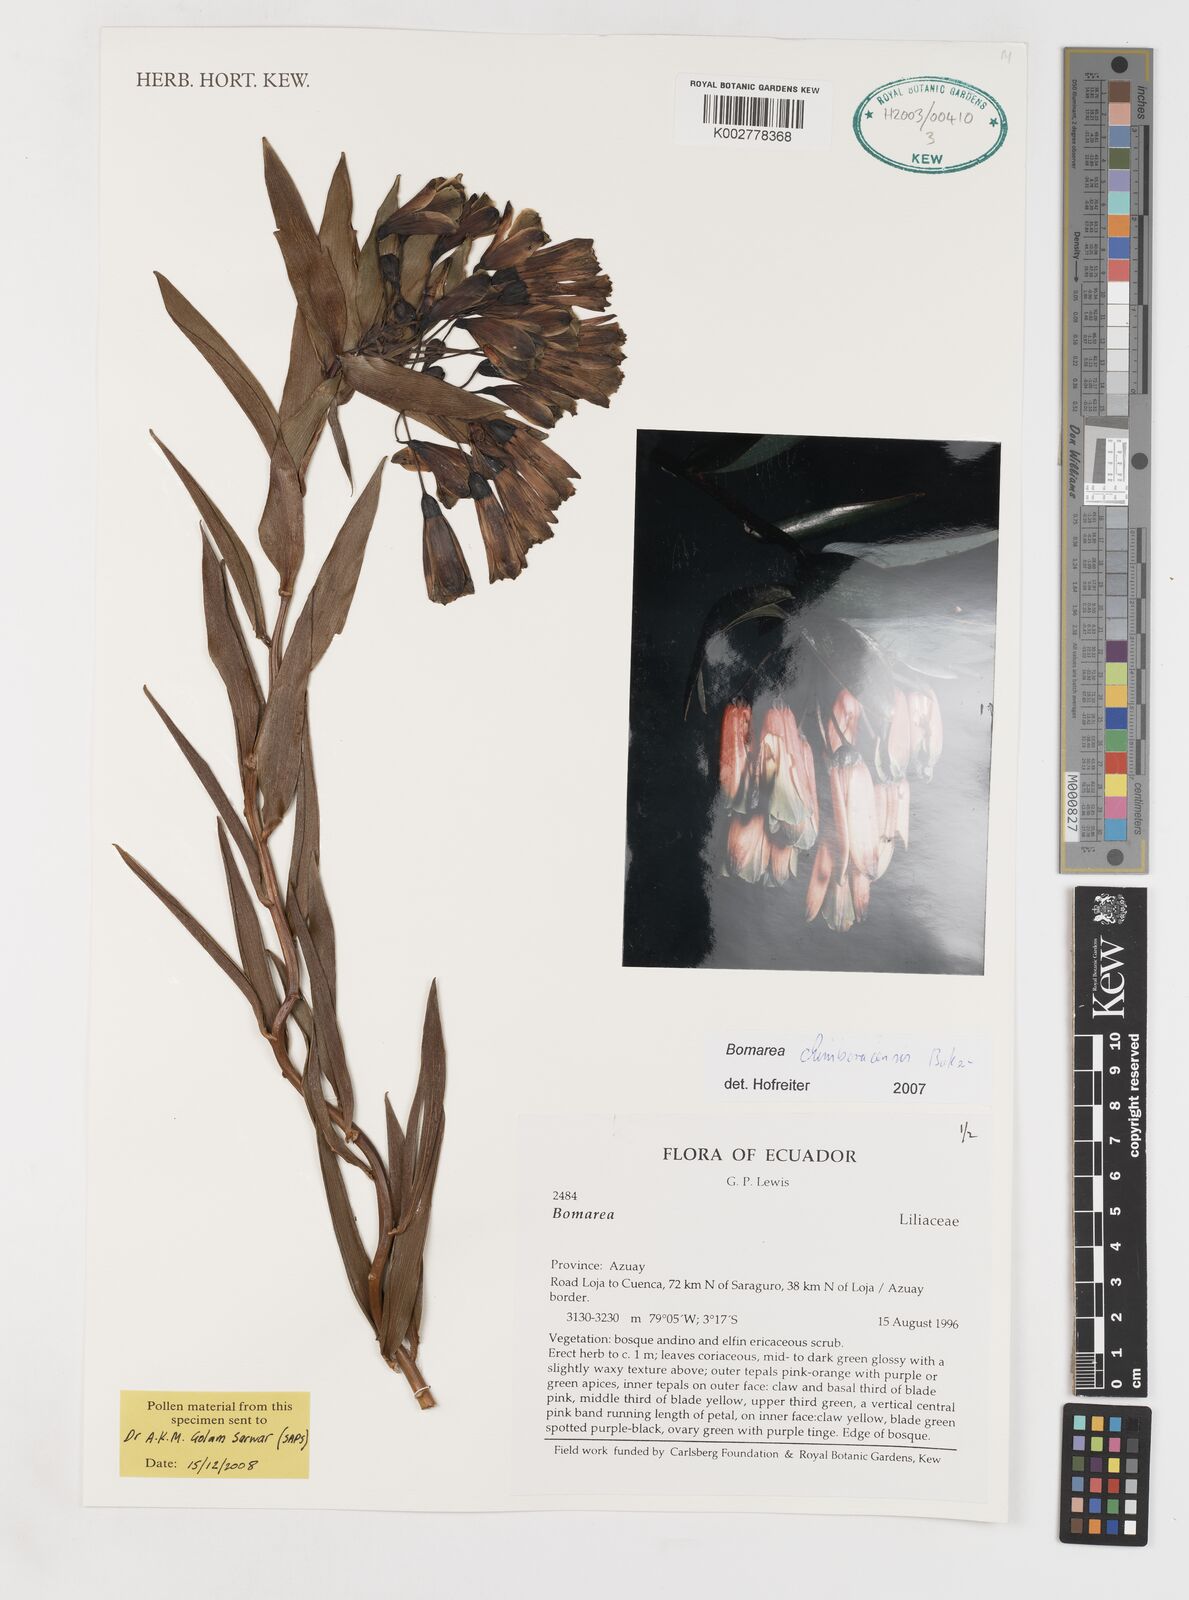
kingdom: Plantae
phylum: Tracheophyta
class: Liliopsida
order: Liliales
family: Alstroemeriaceae
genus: Bomarea
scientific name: Bomarea chimboracensis
